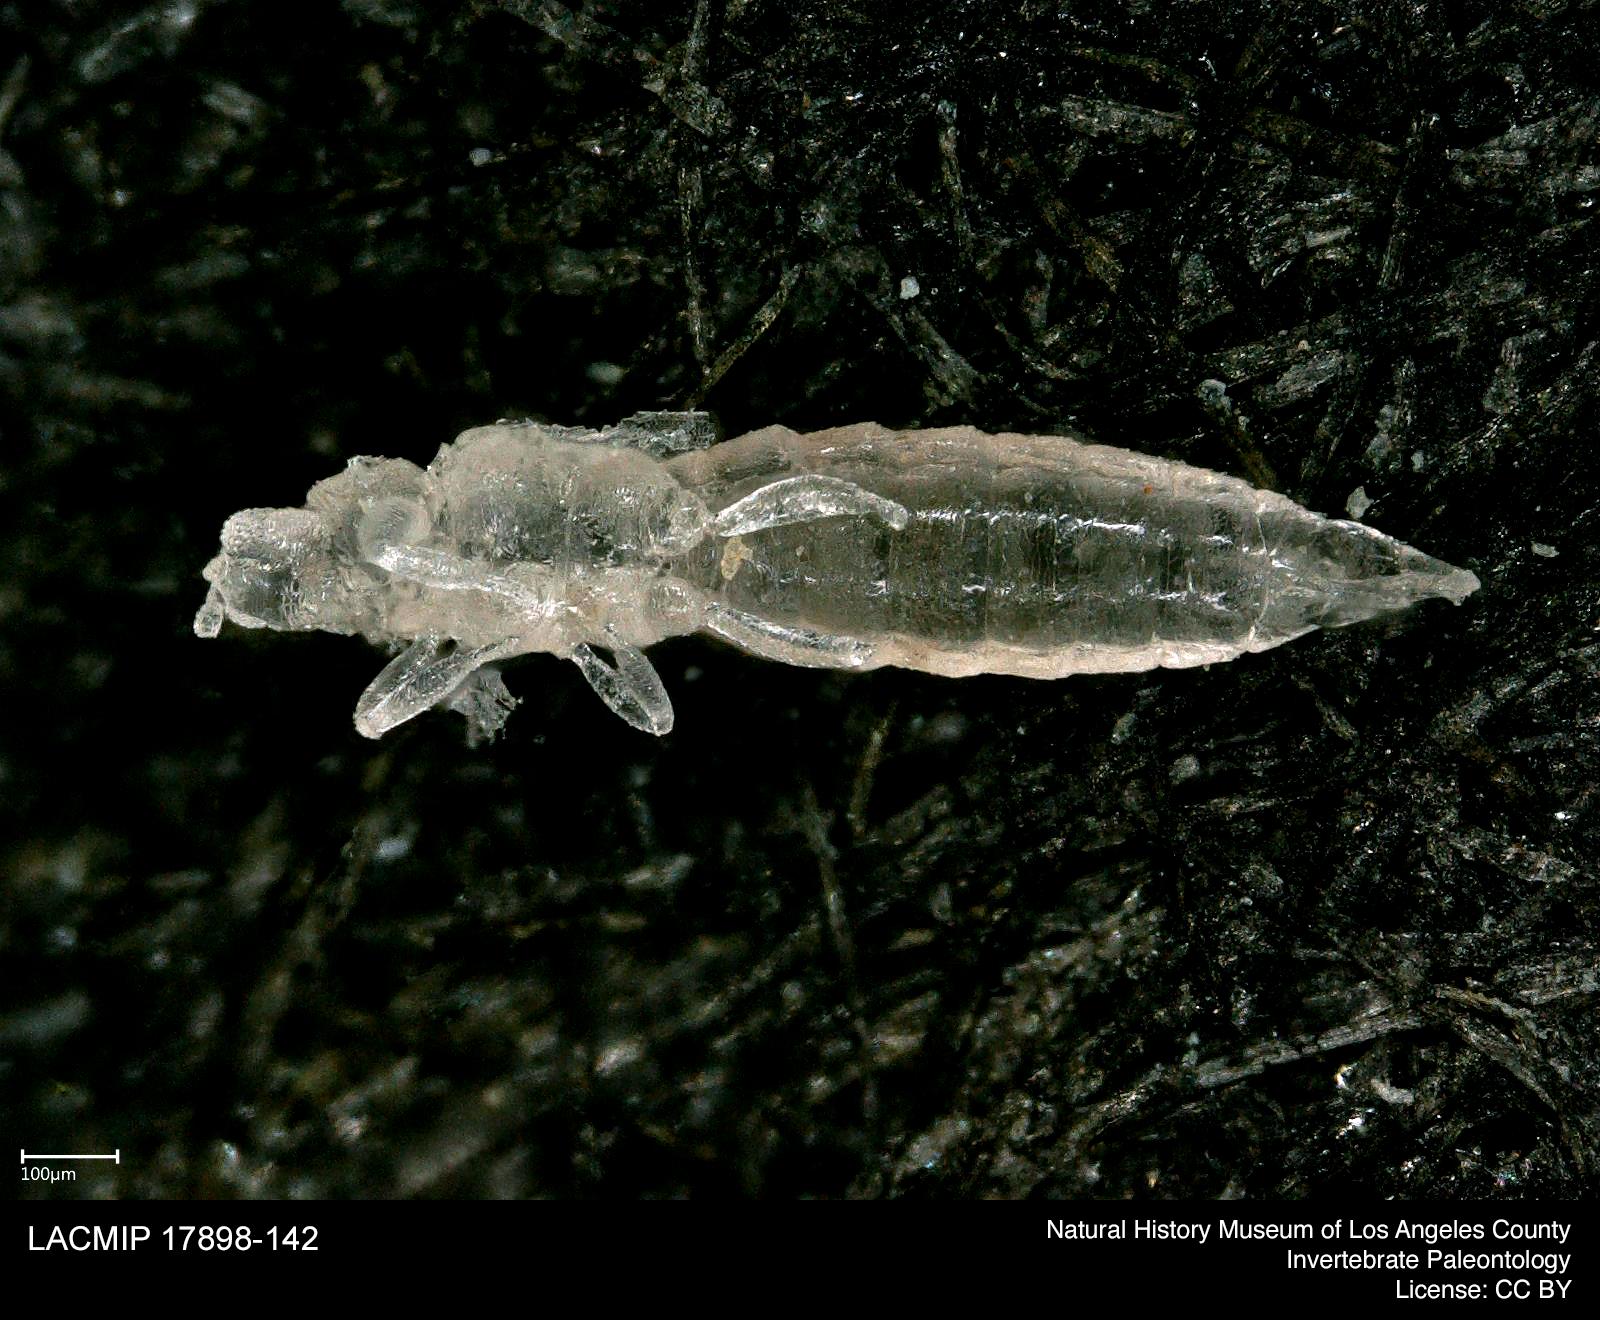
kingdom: Animalia
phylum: Arthropoda
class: Insecta
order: Thysanoptera
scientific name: Thysanoptera
